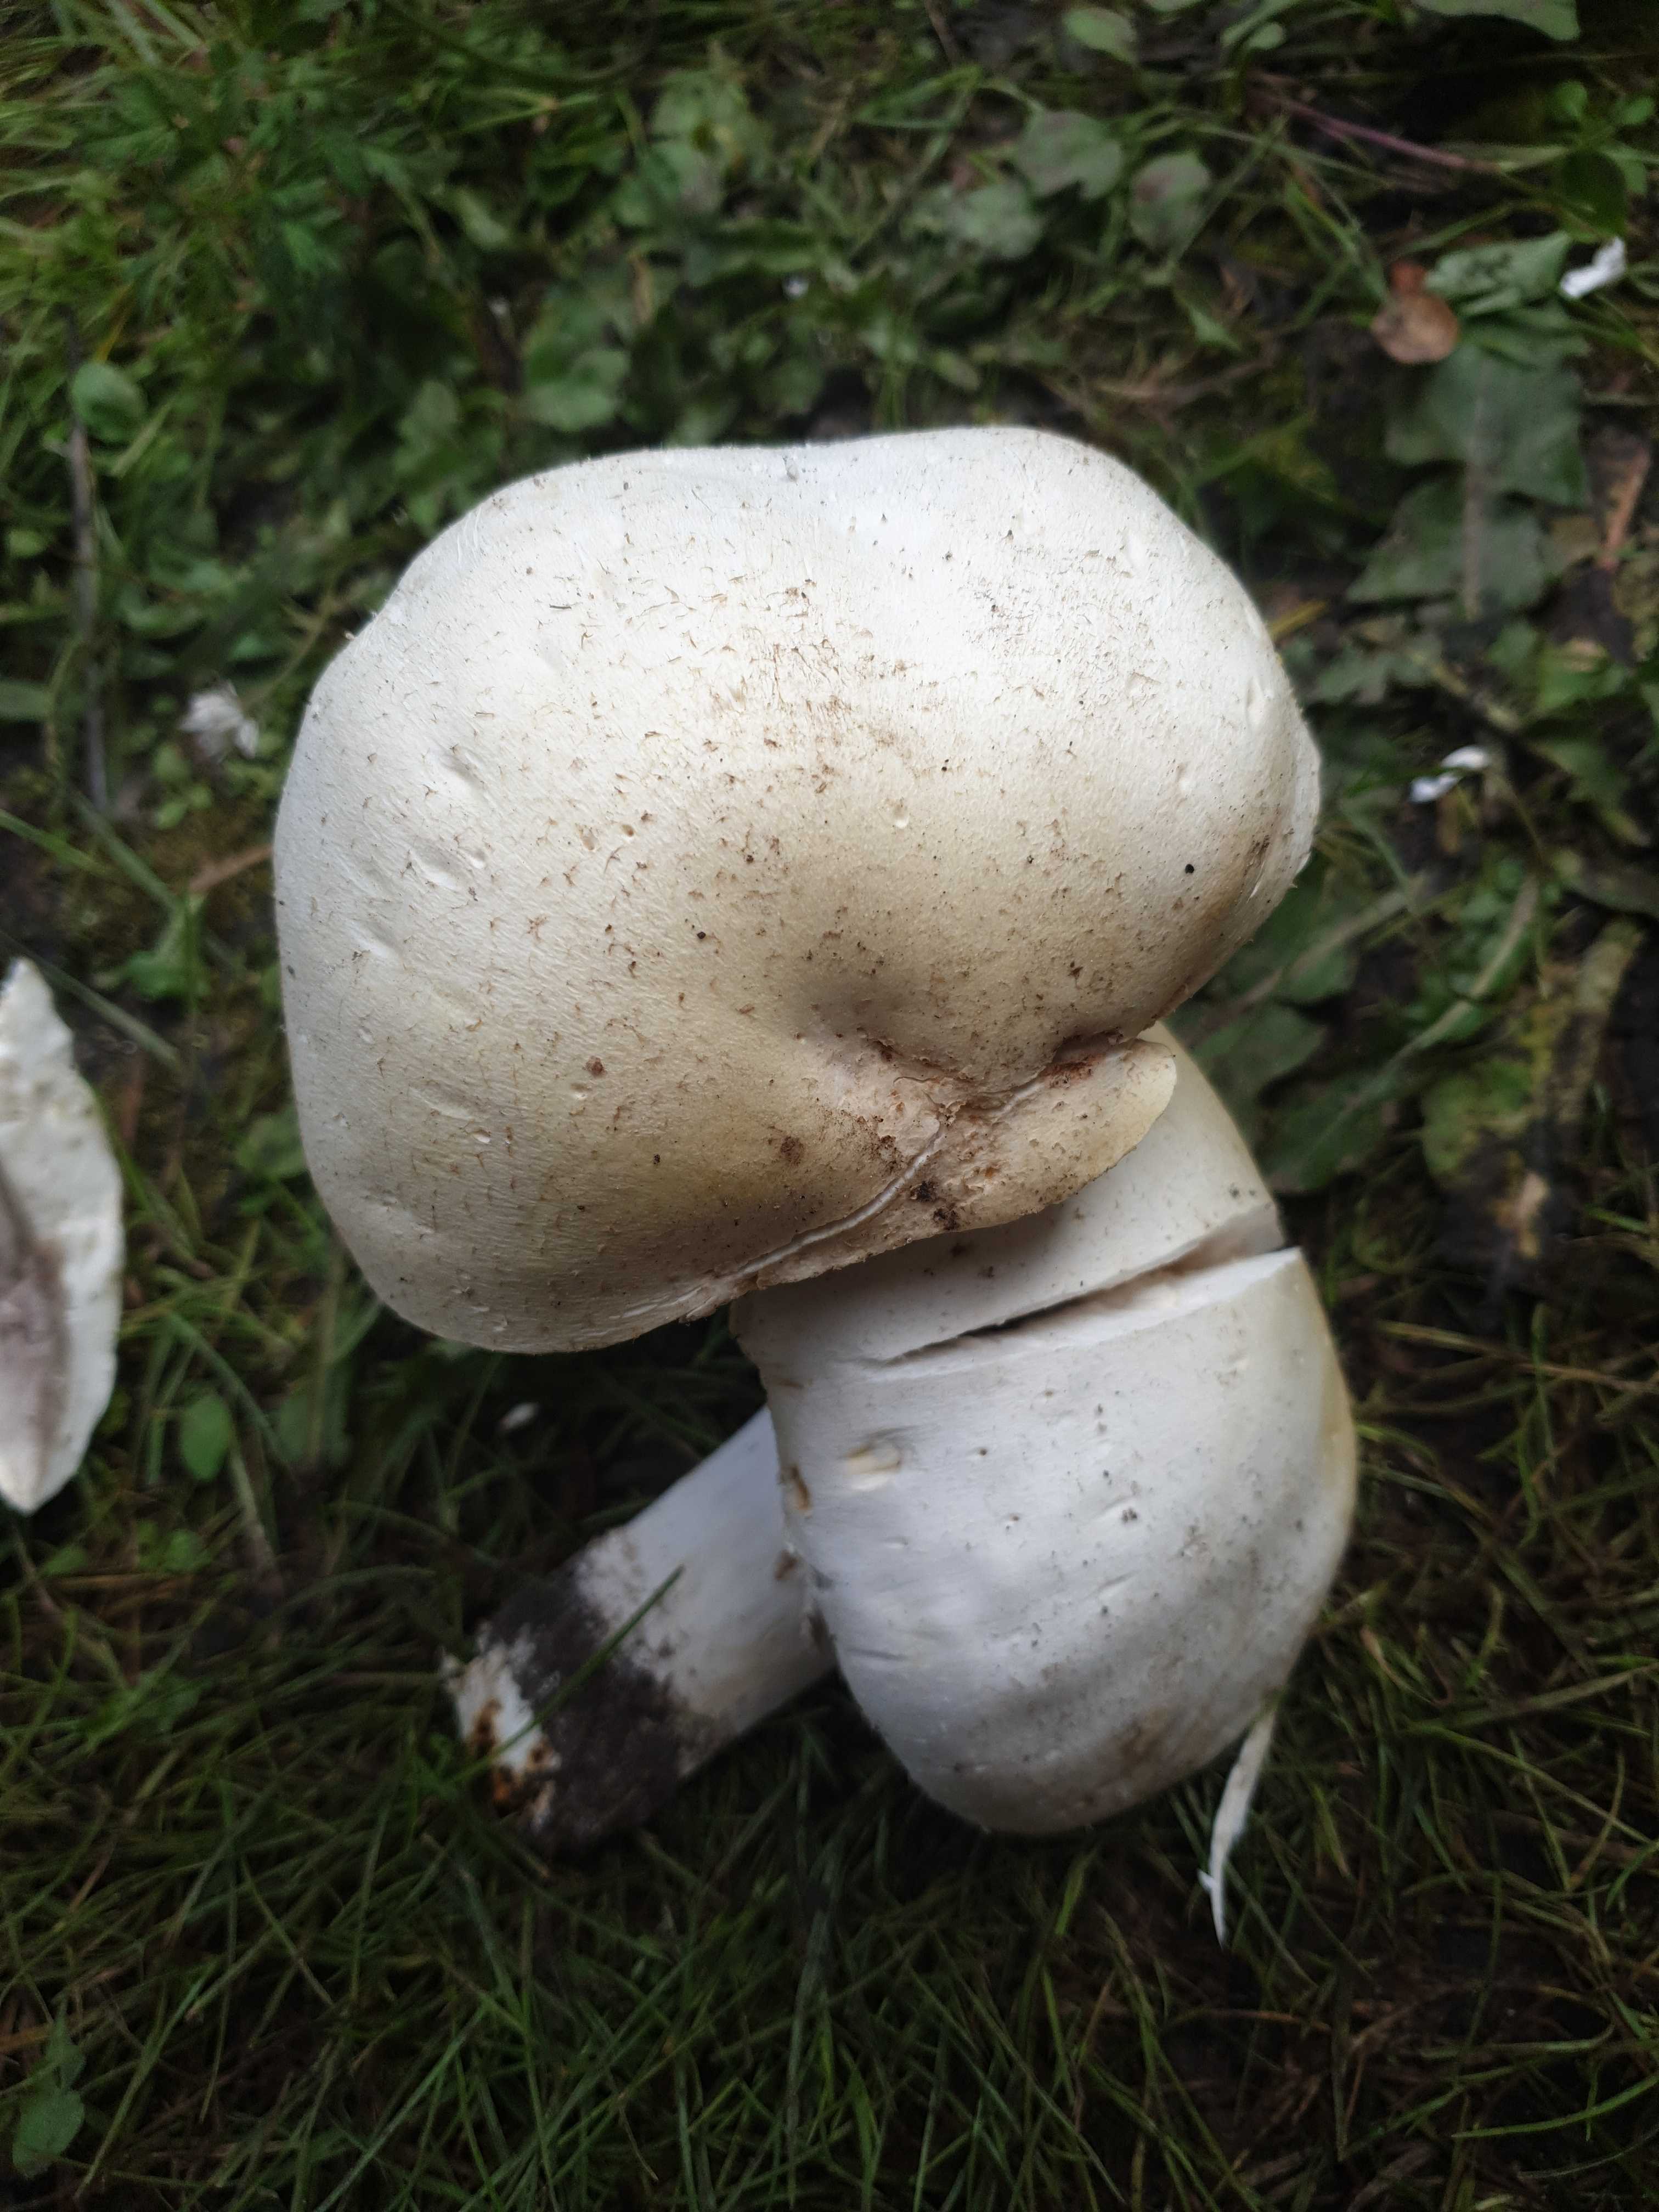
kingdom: Fungi
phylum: Basidiomycota
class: Agaricomycetes
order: Agaricales
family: Agaricaceae
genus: Agaricus
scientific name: Agaricus
